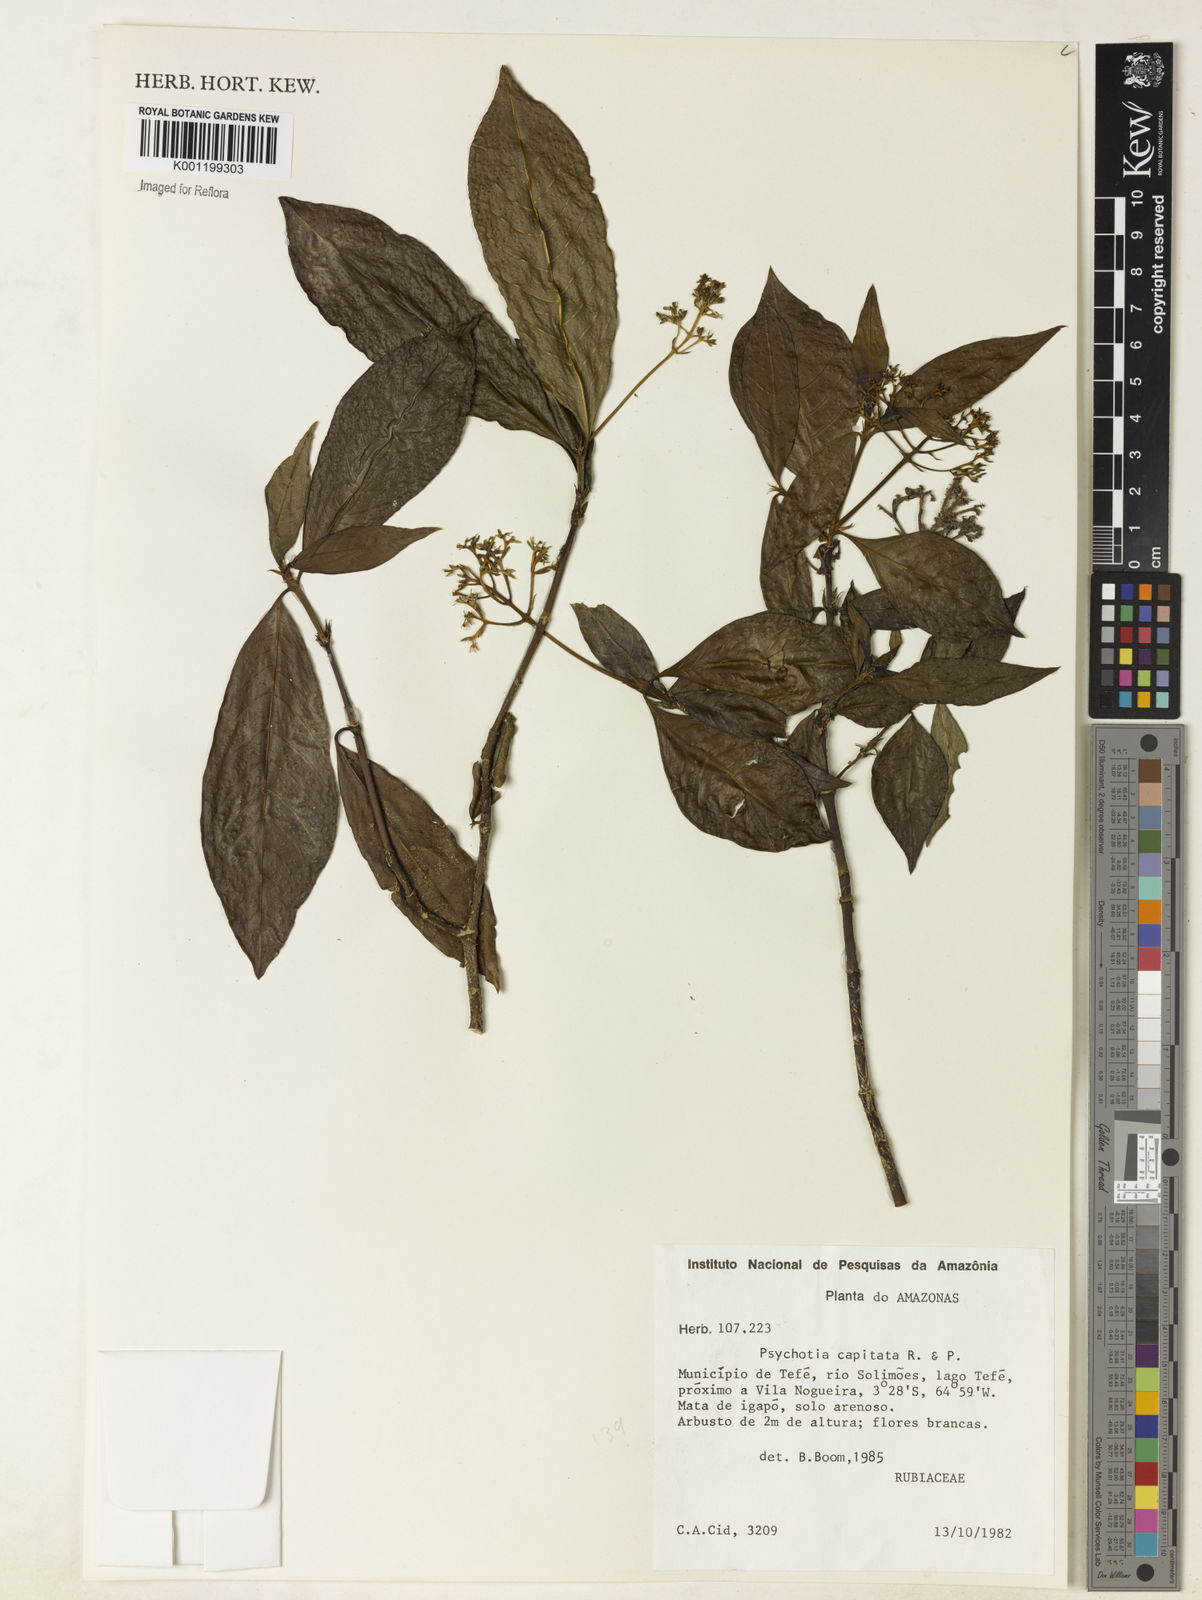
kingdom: Plantae
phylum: Tracheophyta
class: Magnoliopsida
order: Gentianales
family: Rubiaceae
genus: Palicourea
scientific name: Palicourea violacea
